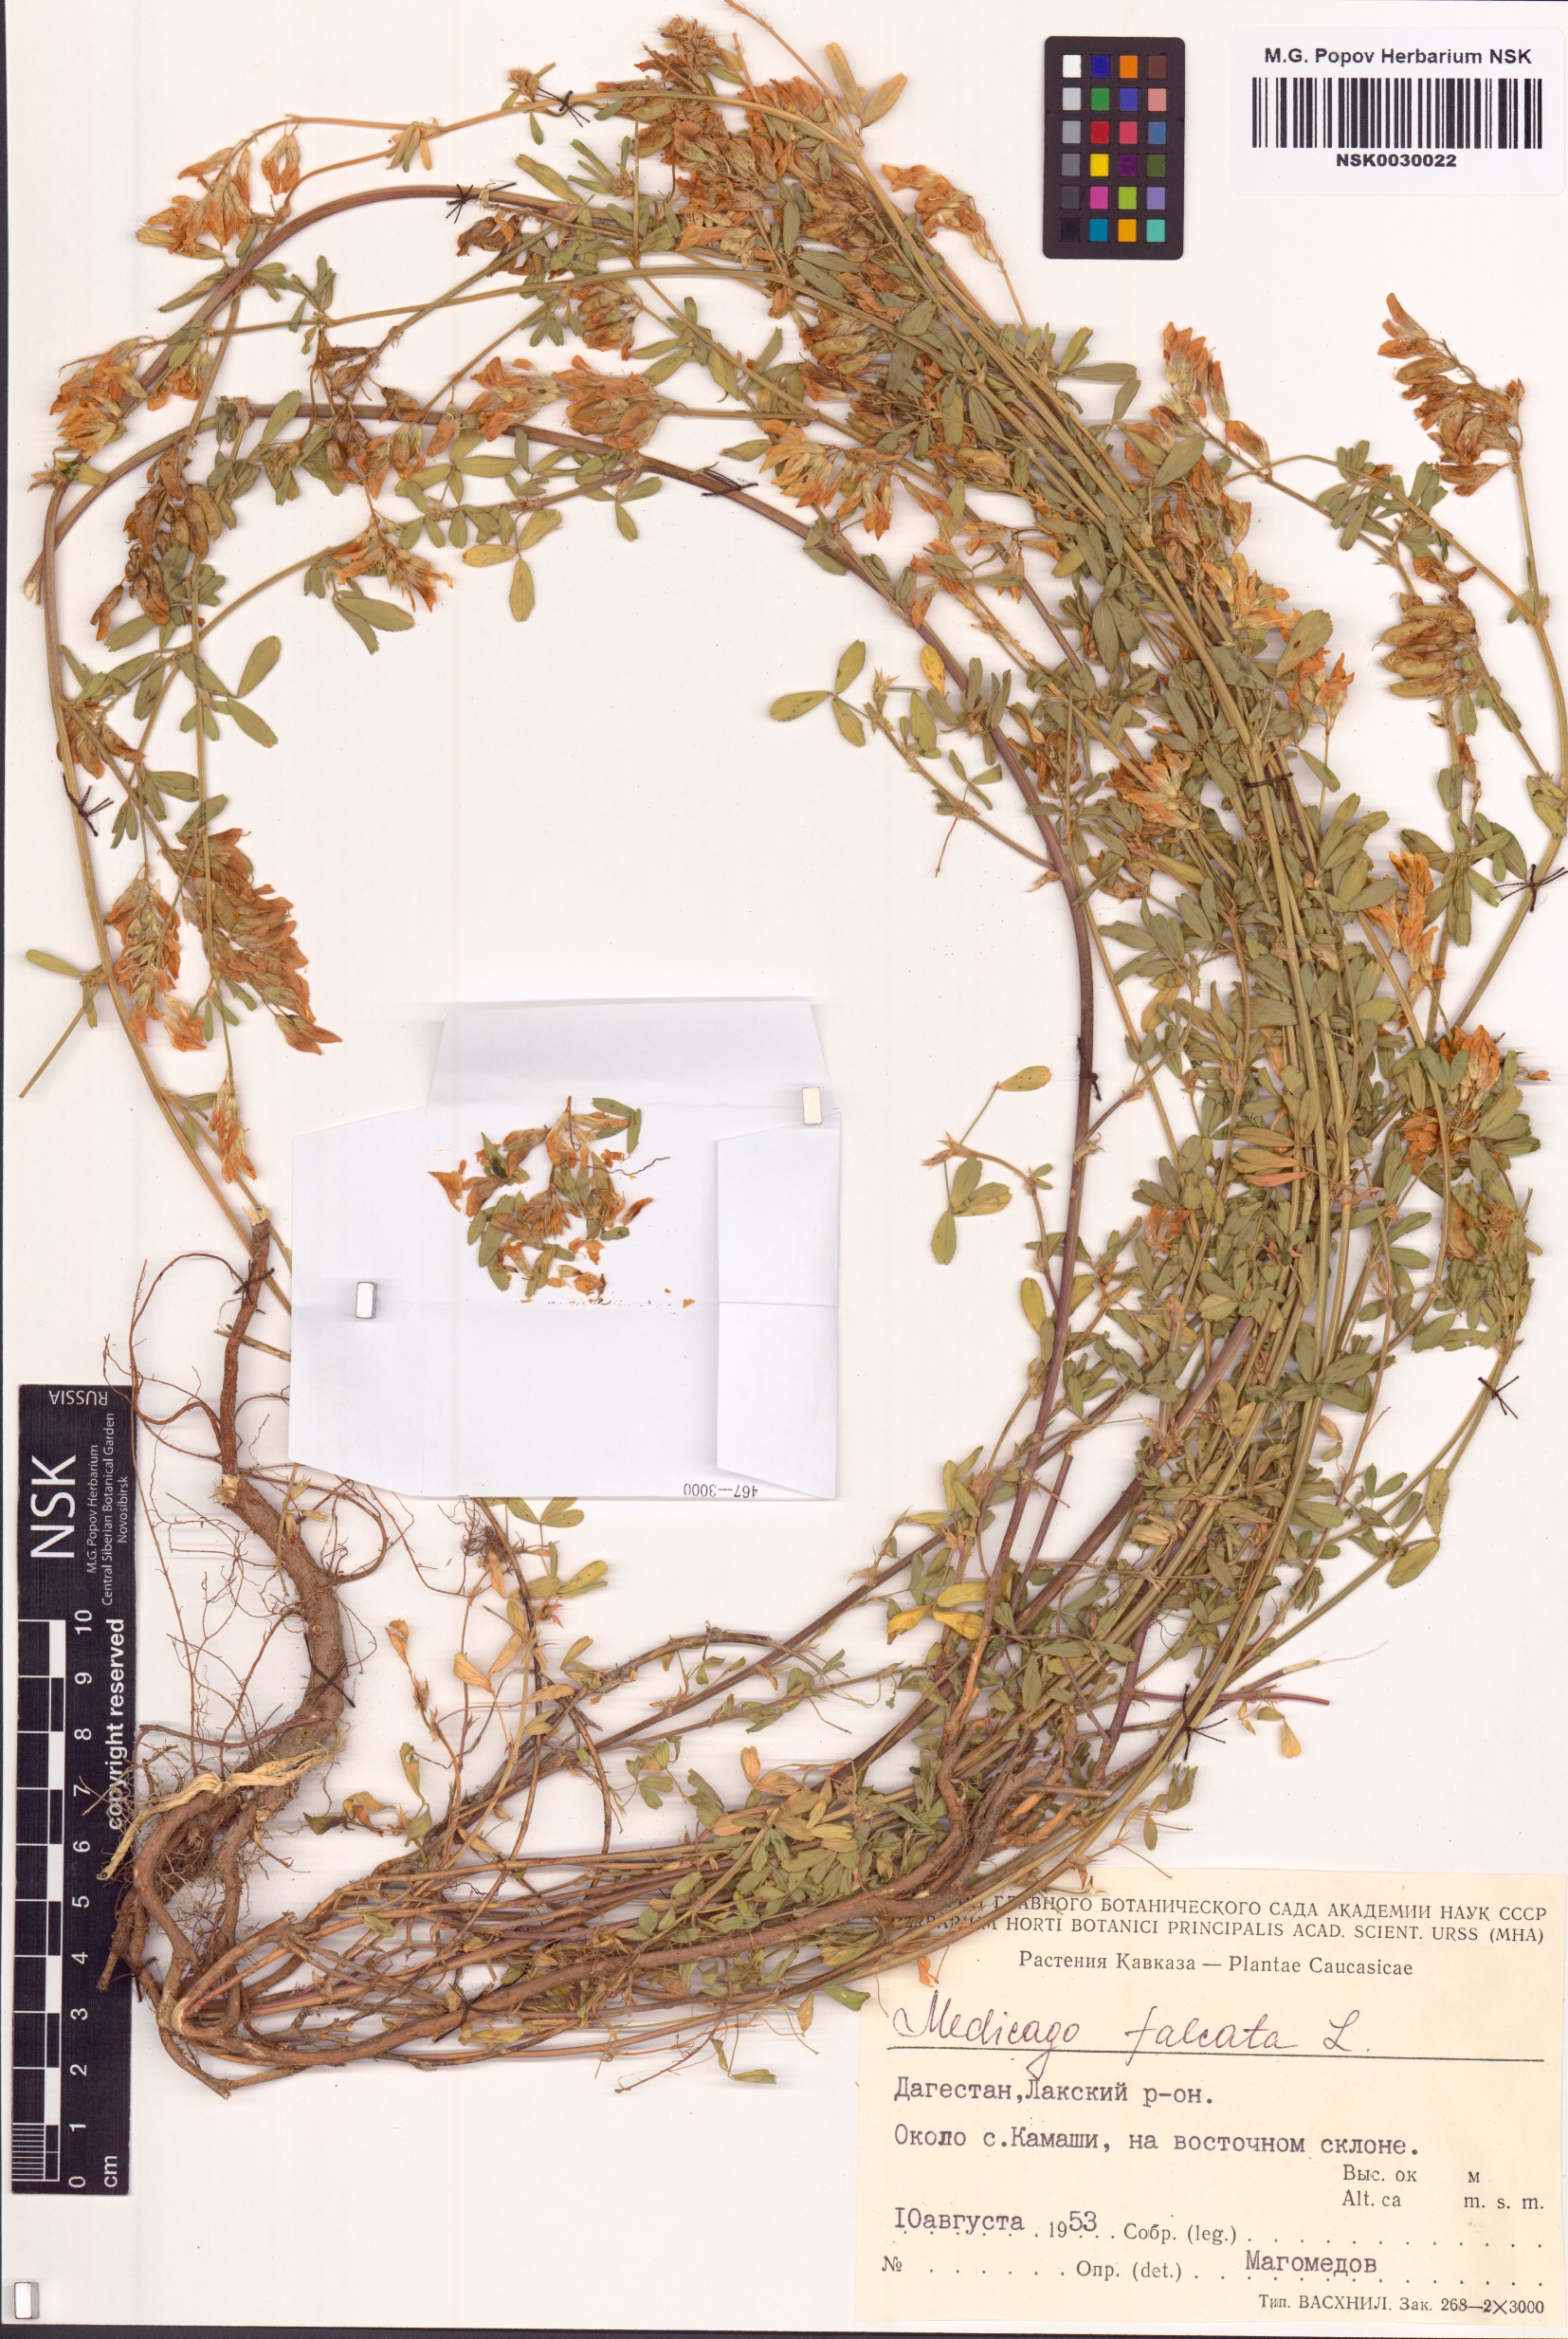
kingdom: Plantae
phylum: Tracheophyta
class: Magnoliopsida
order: Fabales
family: Fabaceae
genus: Medicago
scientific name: Medicago falcata
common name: Sickle medick
